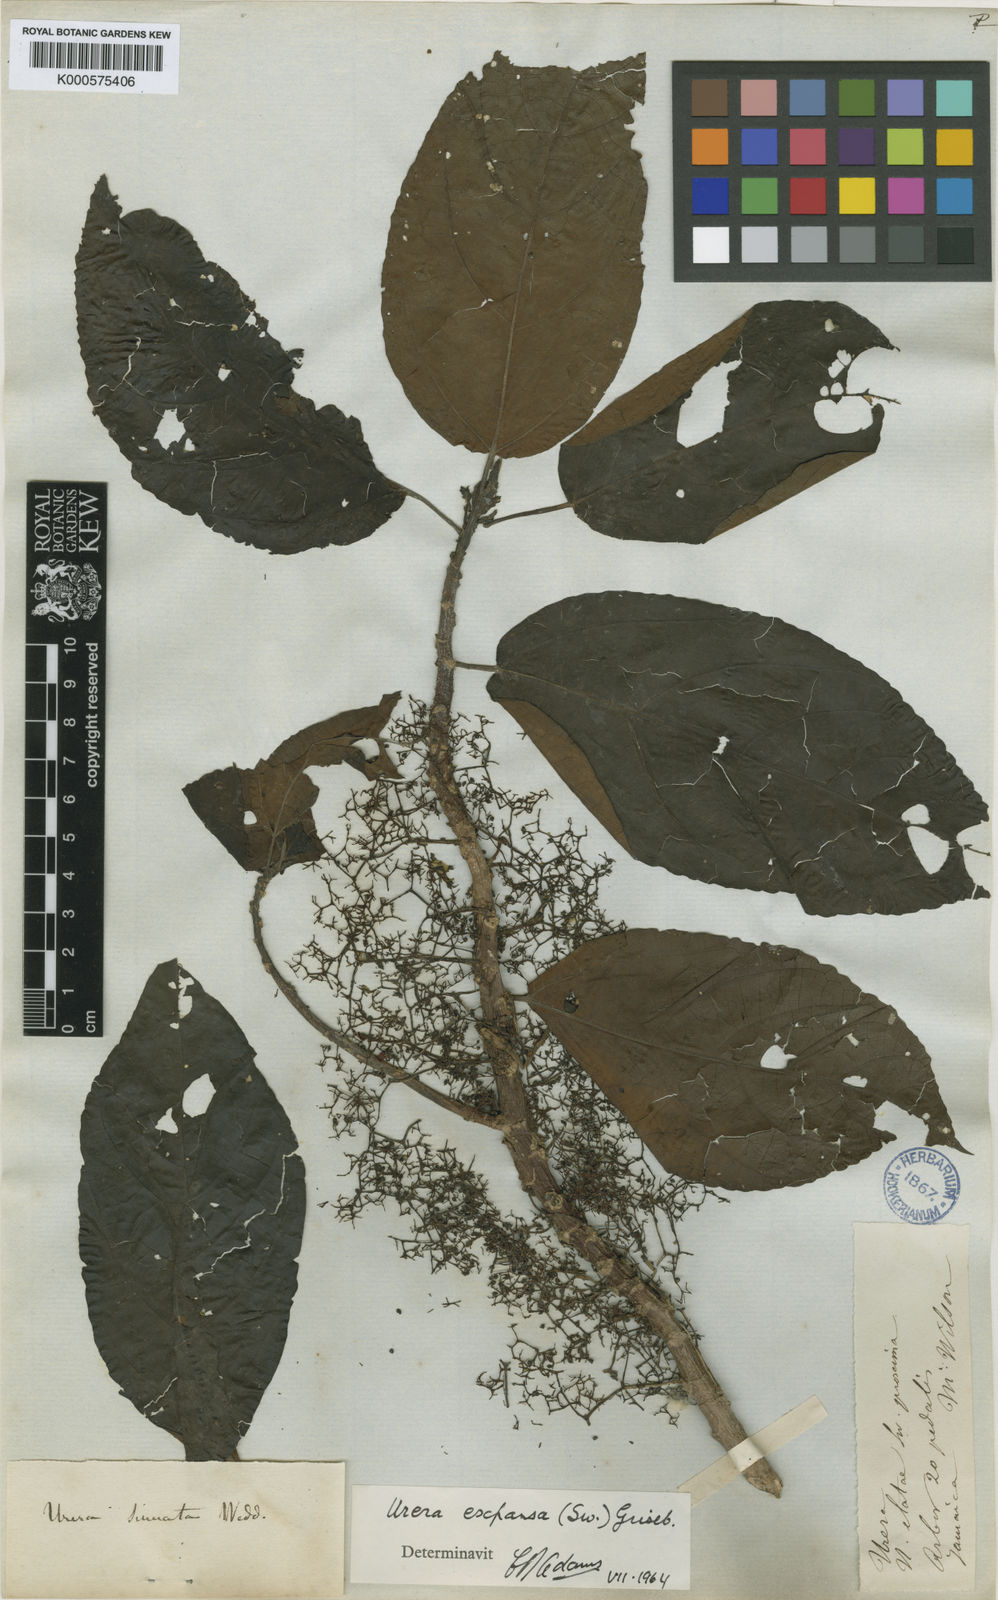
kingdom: Plantae
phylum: Tracheophyta
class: Magnoliopsida
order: Rosales
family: Urticaceae
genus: Urera
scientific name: Urera expansa
